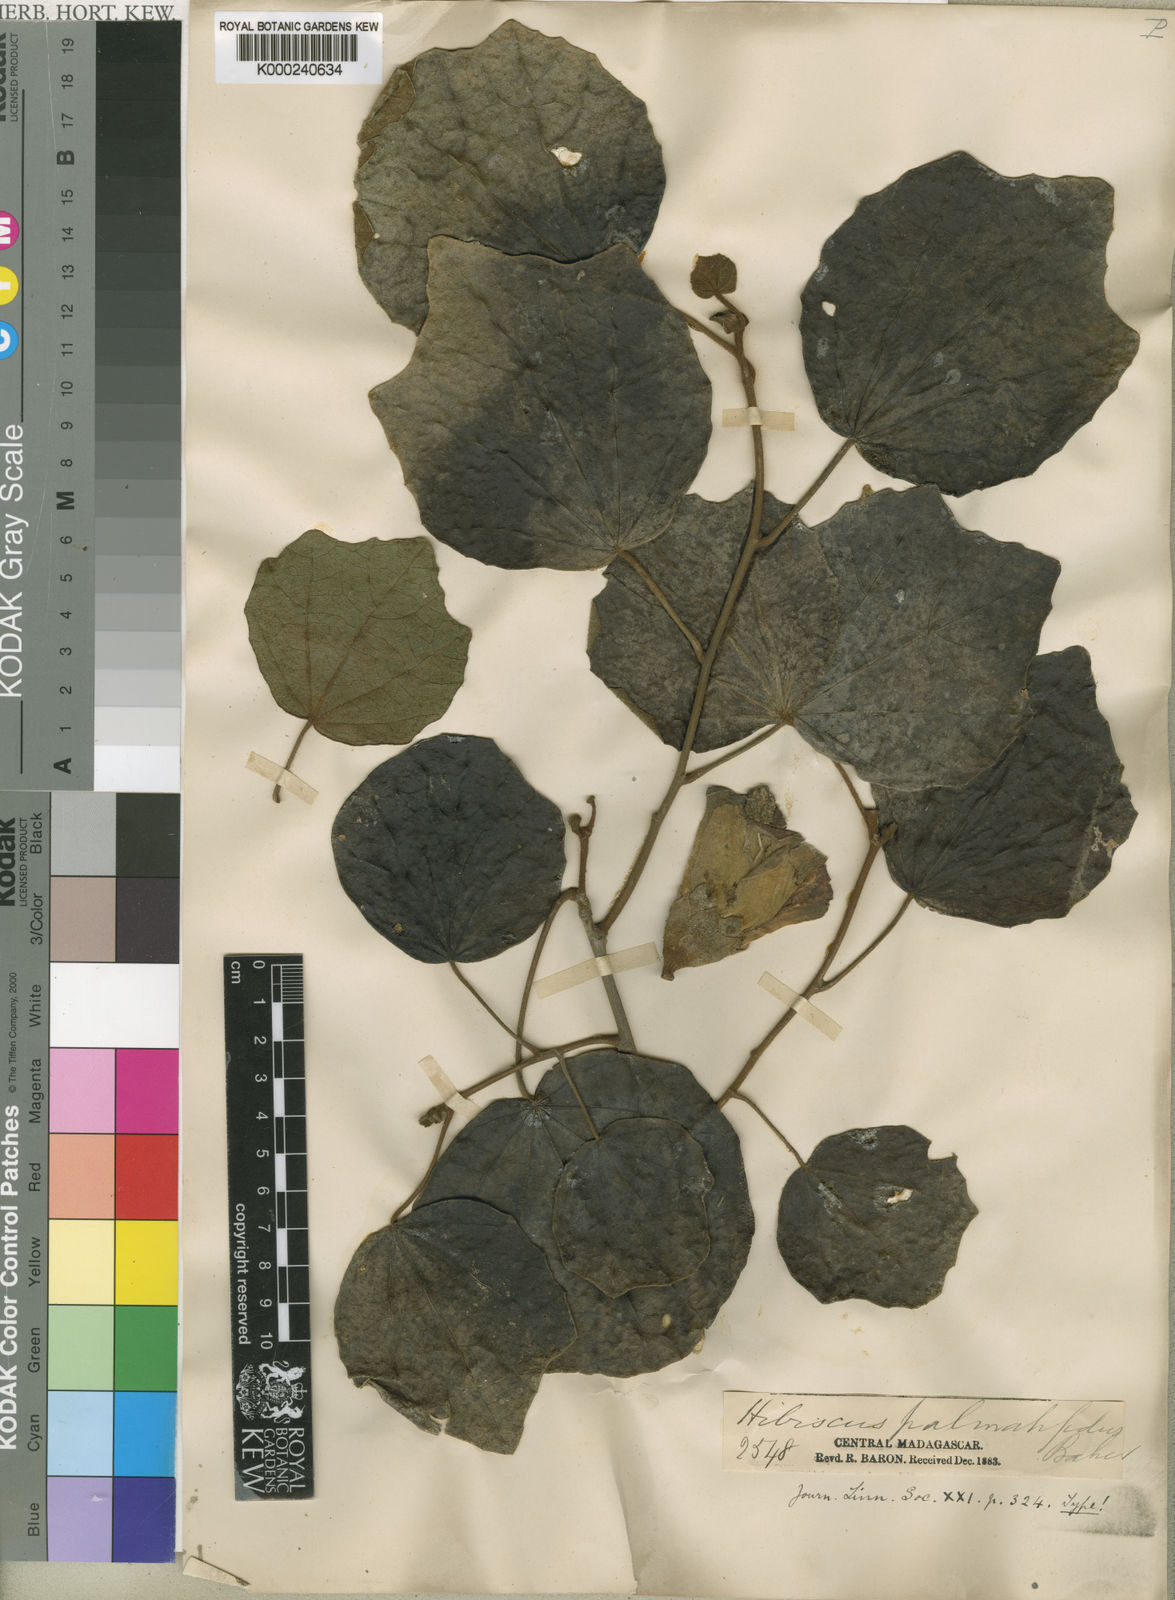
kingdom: Plantae
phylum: Tracheophyta
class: Magnoliopsida
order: Malvales
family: Malvaceae
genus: Hibiscus
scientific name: Hibiscus palmatifidus
